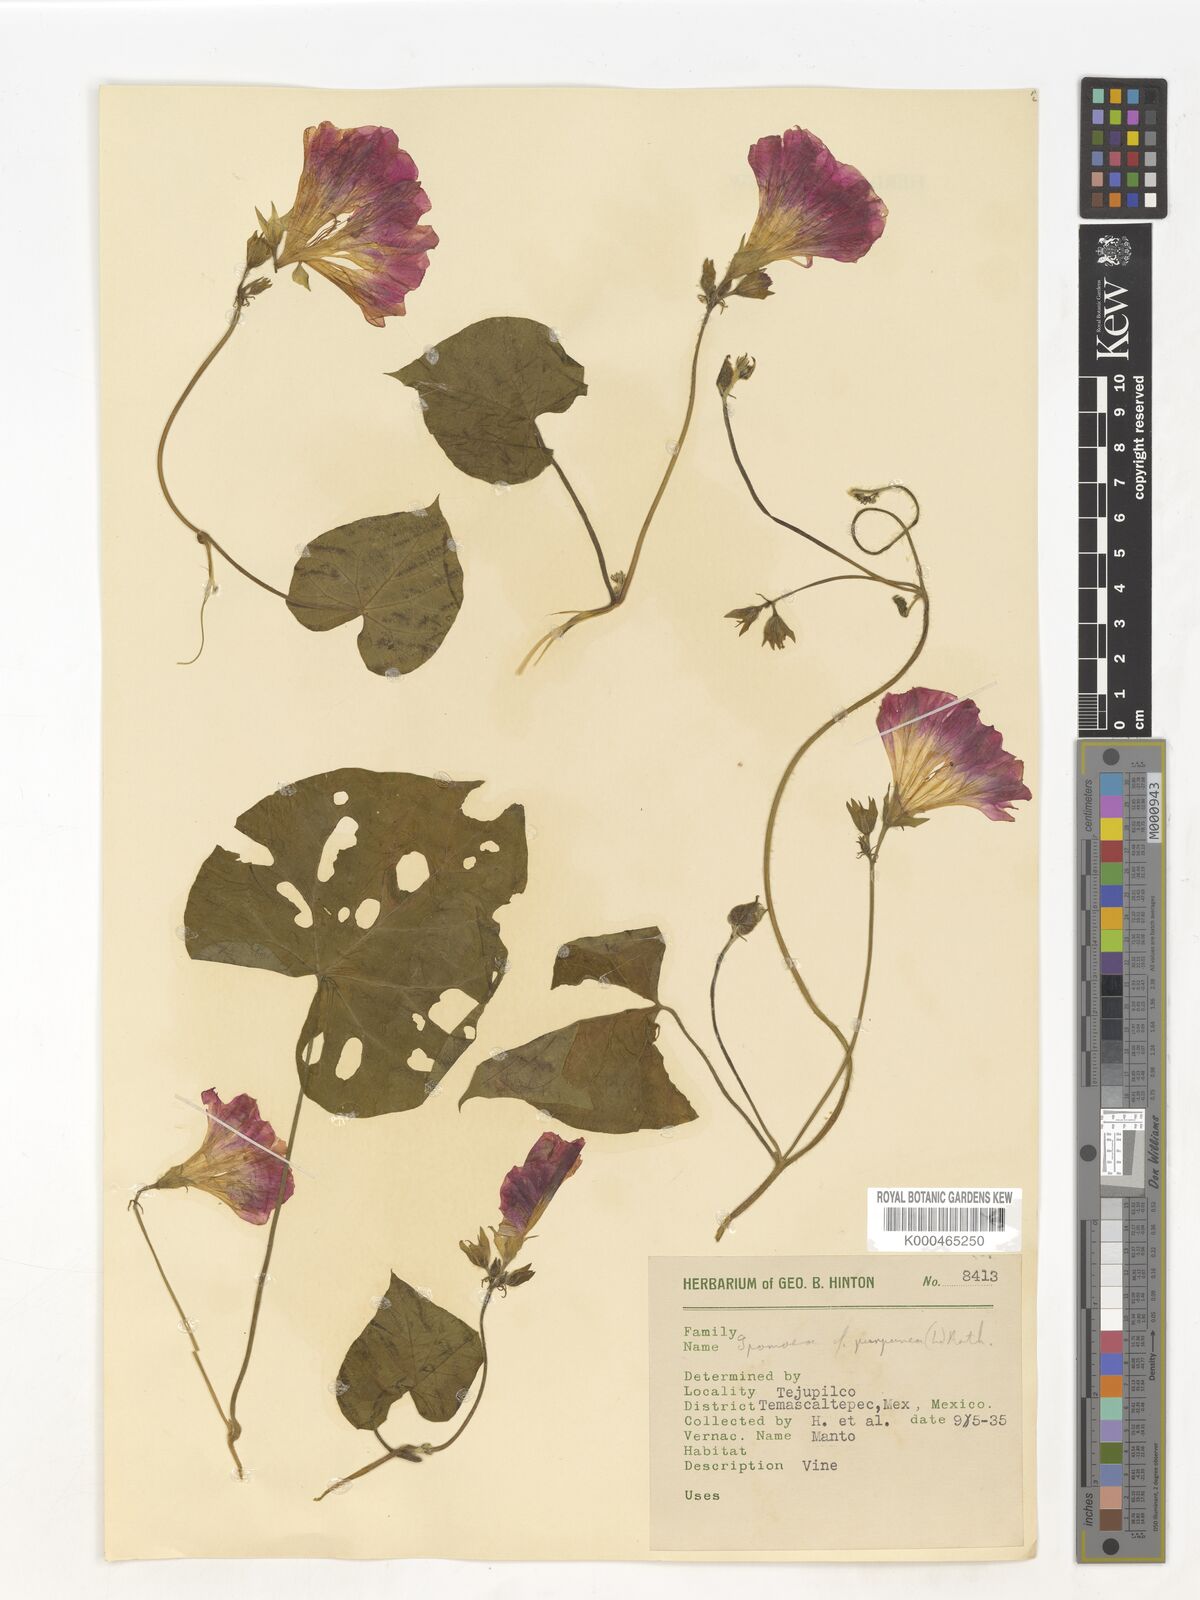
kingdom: Plantae
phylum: Tracheophyta
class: Magnoliopsida
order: Solanales
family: Convolvulaceae
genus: Ipomoea
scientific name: Ipomoea purpurea
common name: Common morning-glory
